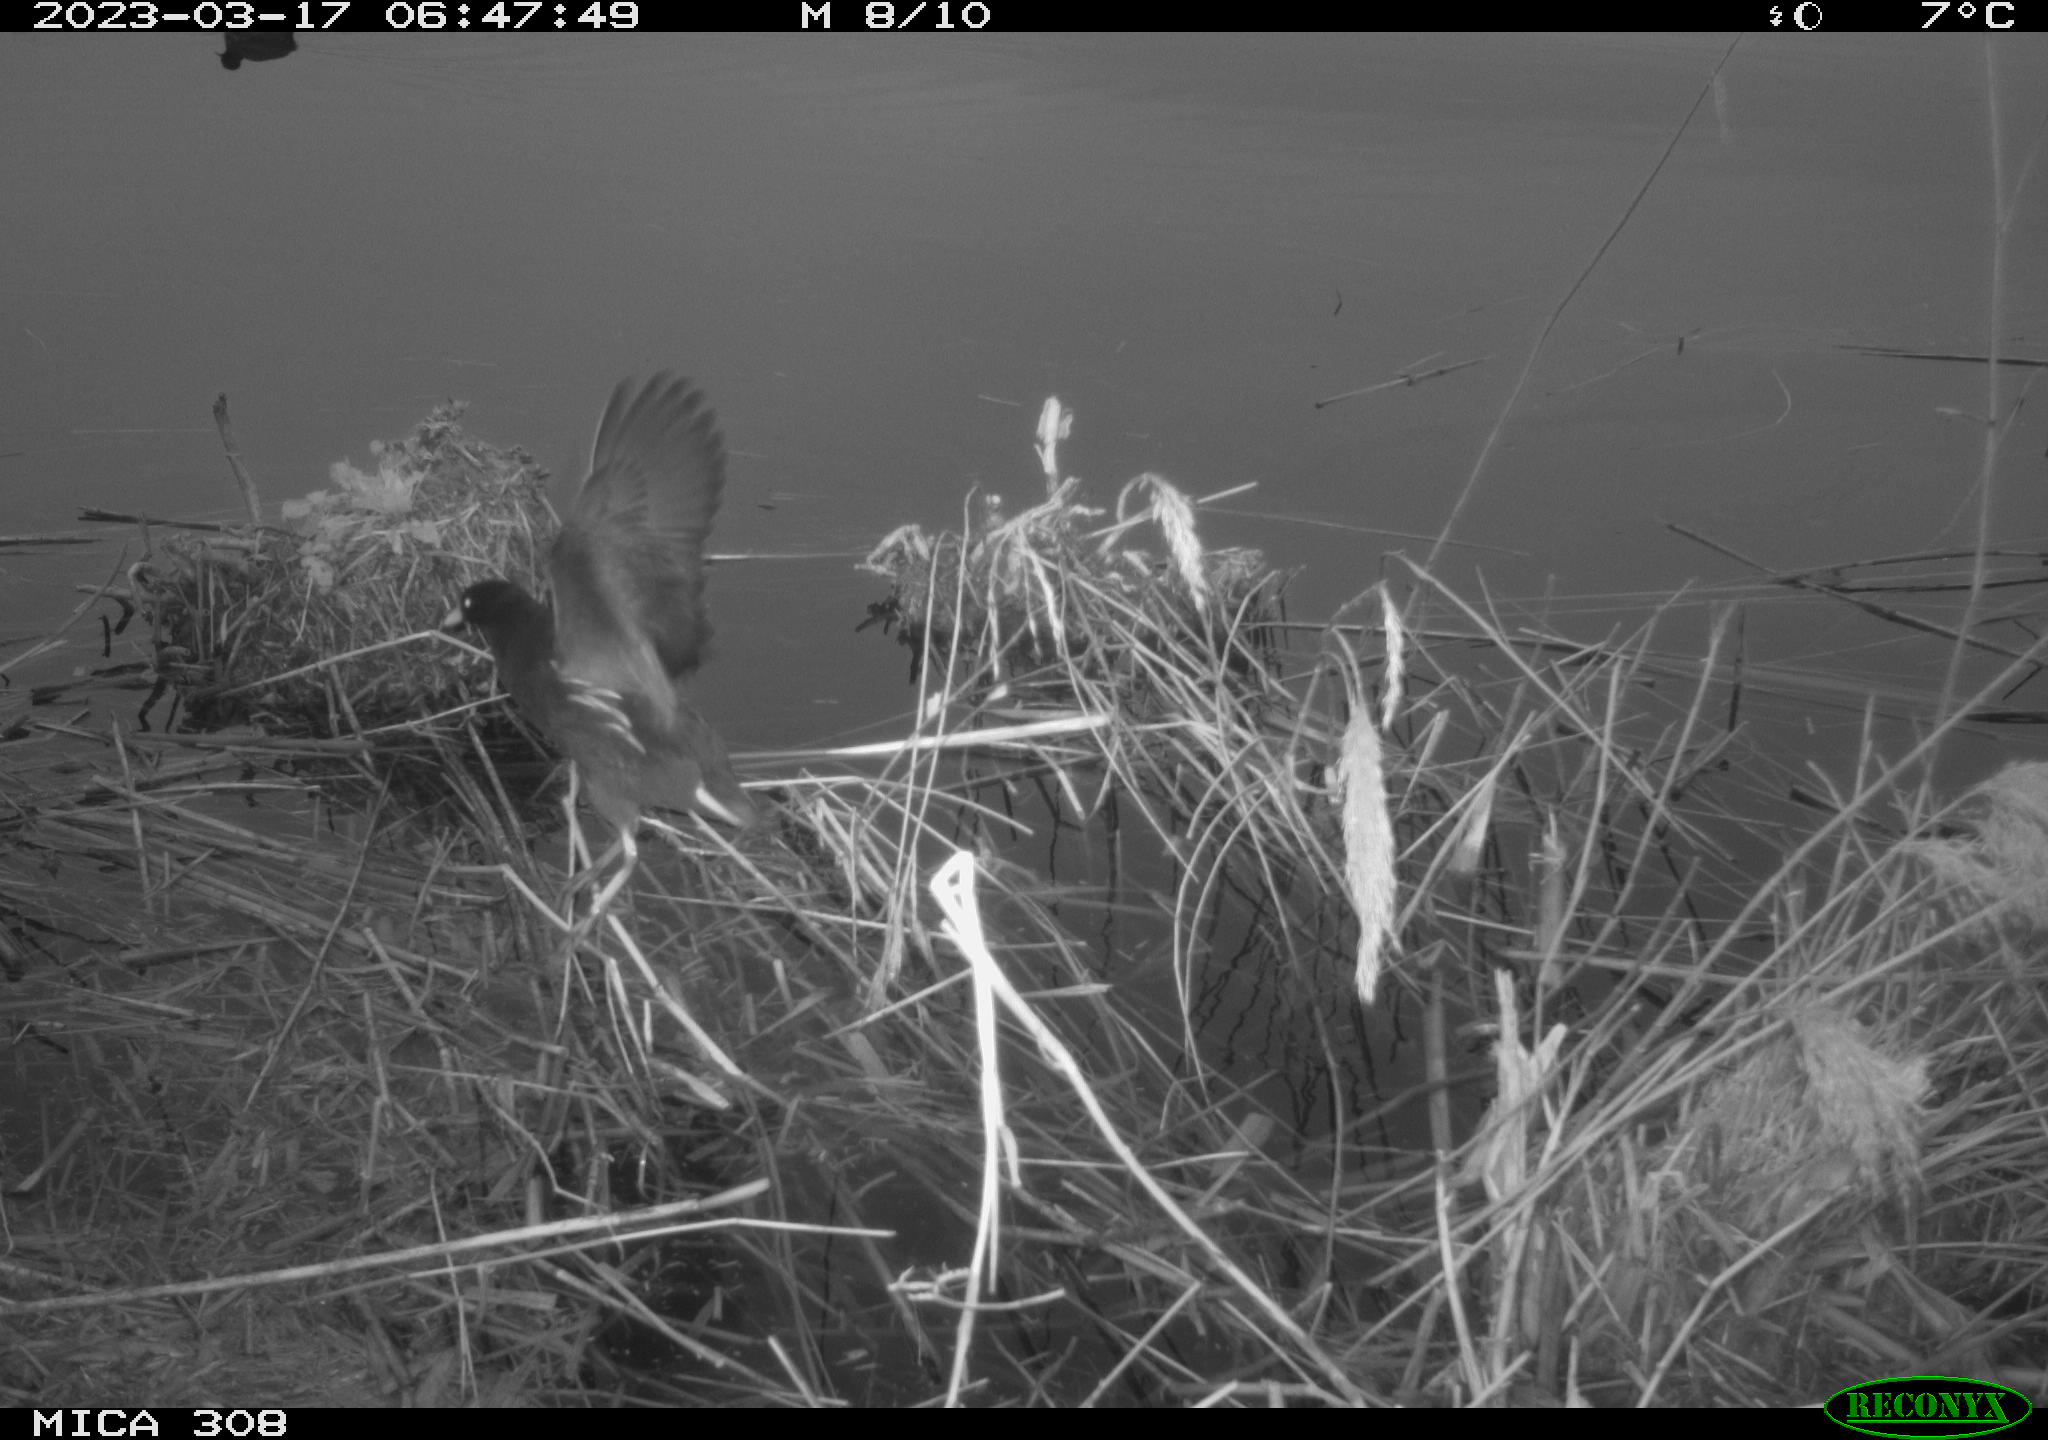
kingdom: Animalia
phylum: Chordata
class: Aves
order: Gruiformes
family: Rallidae
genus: Fulica
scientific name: Fulica atra
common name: Eurasian coot
